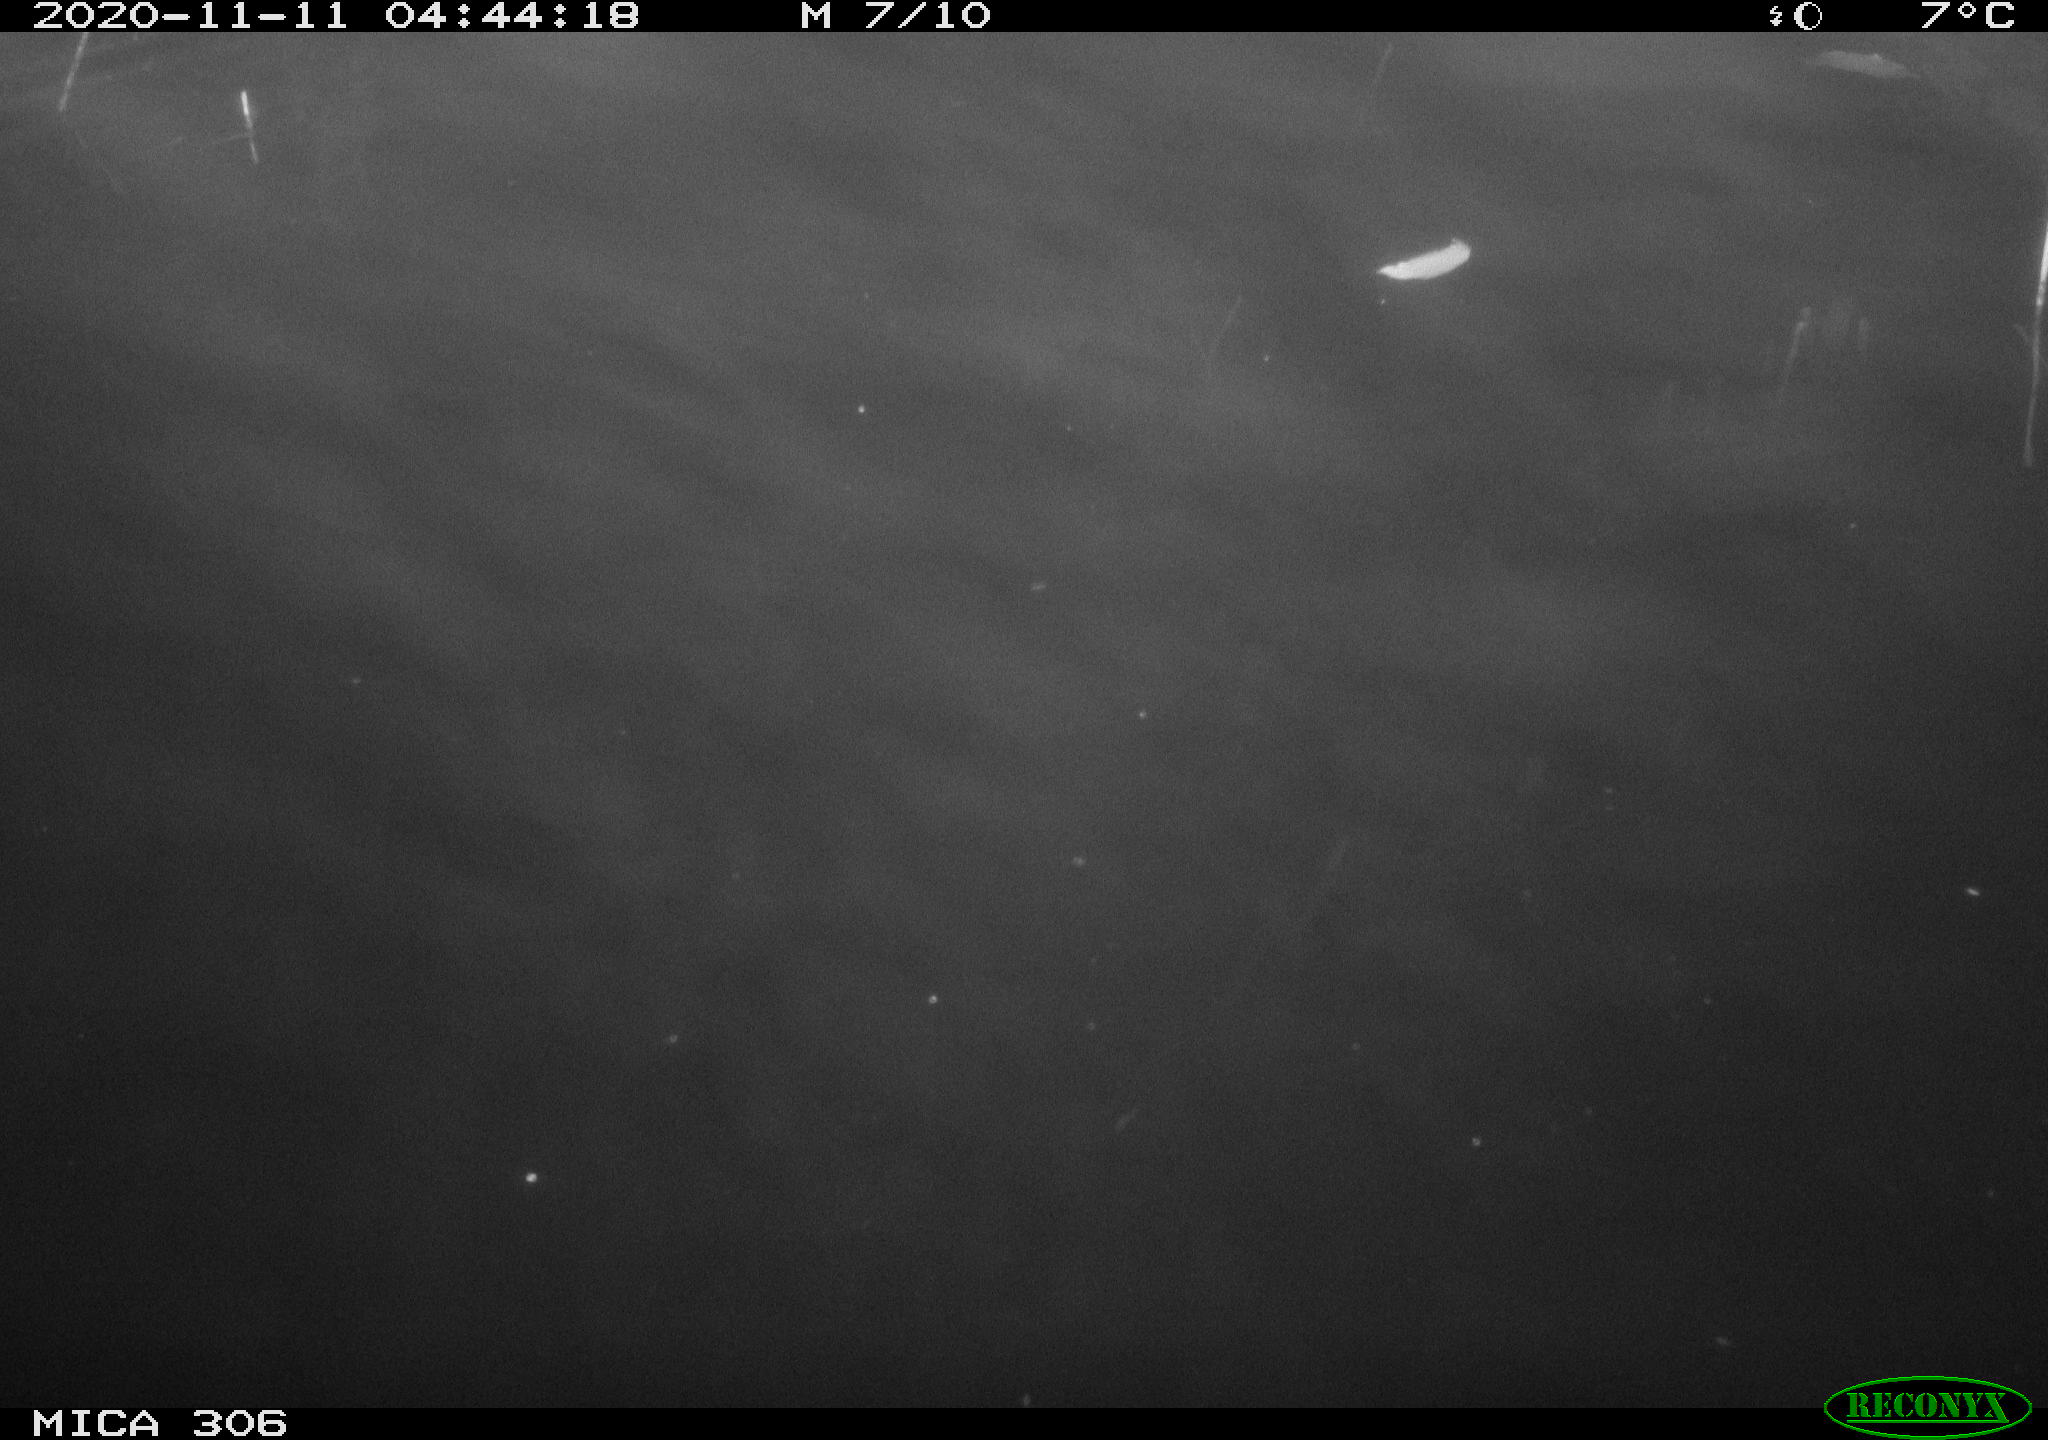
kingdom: Animalia
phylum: Chordata
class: Mammalia
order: Rodentia
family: Cricetidae
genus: Ondatra
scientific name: Ondatra zibethicus
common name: Muskrat
